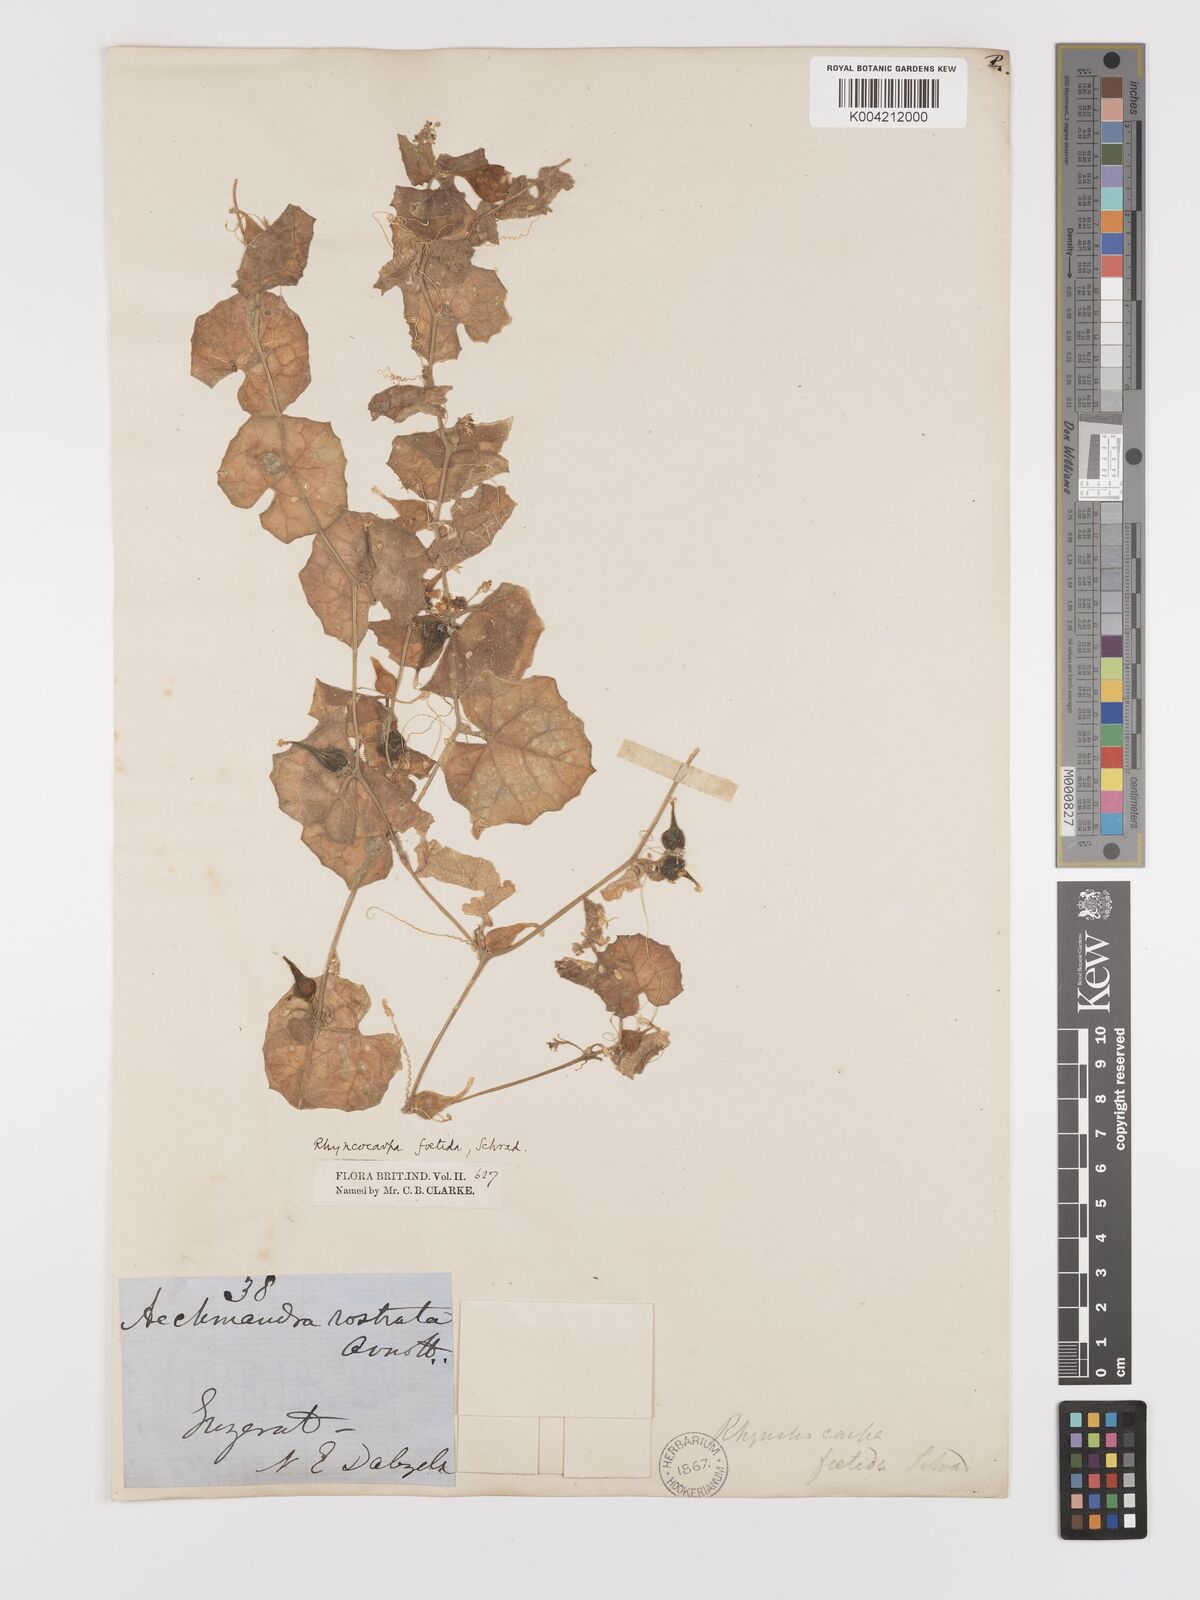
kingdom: Plantae
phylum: Tracheophyta
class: Magnoliopsida
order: Cucurbitales
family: Cucurbitaceae
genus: Kedrostis
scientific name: Kedrostis foetidissima
